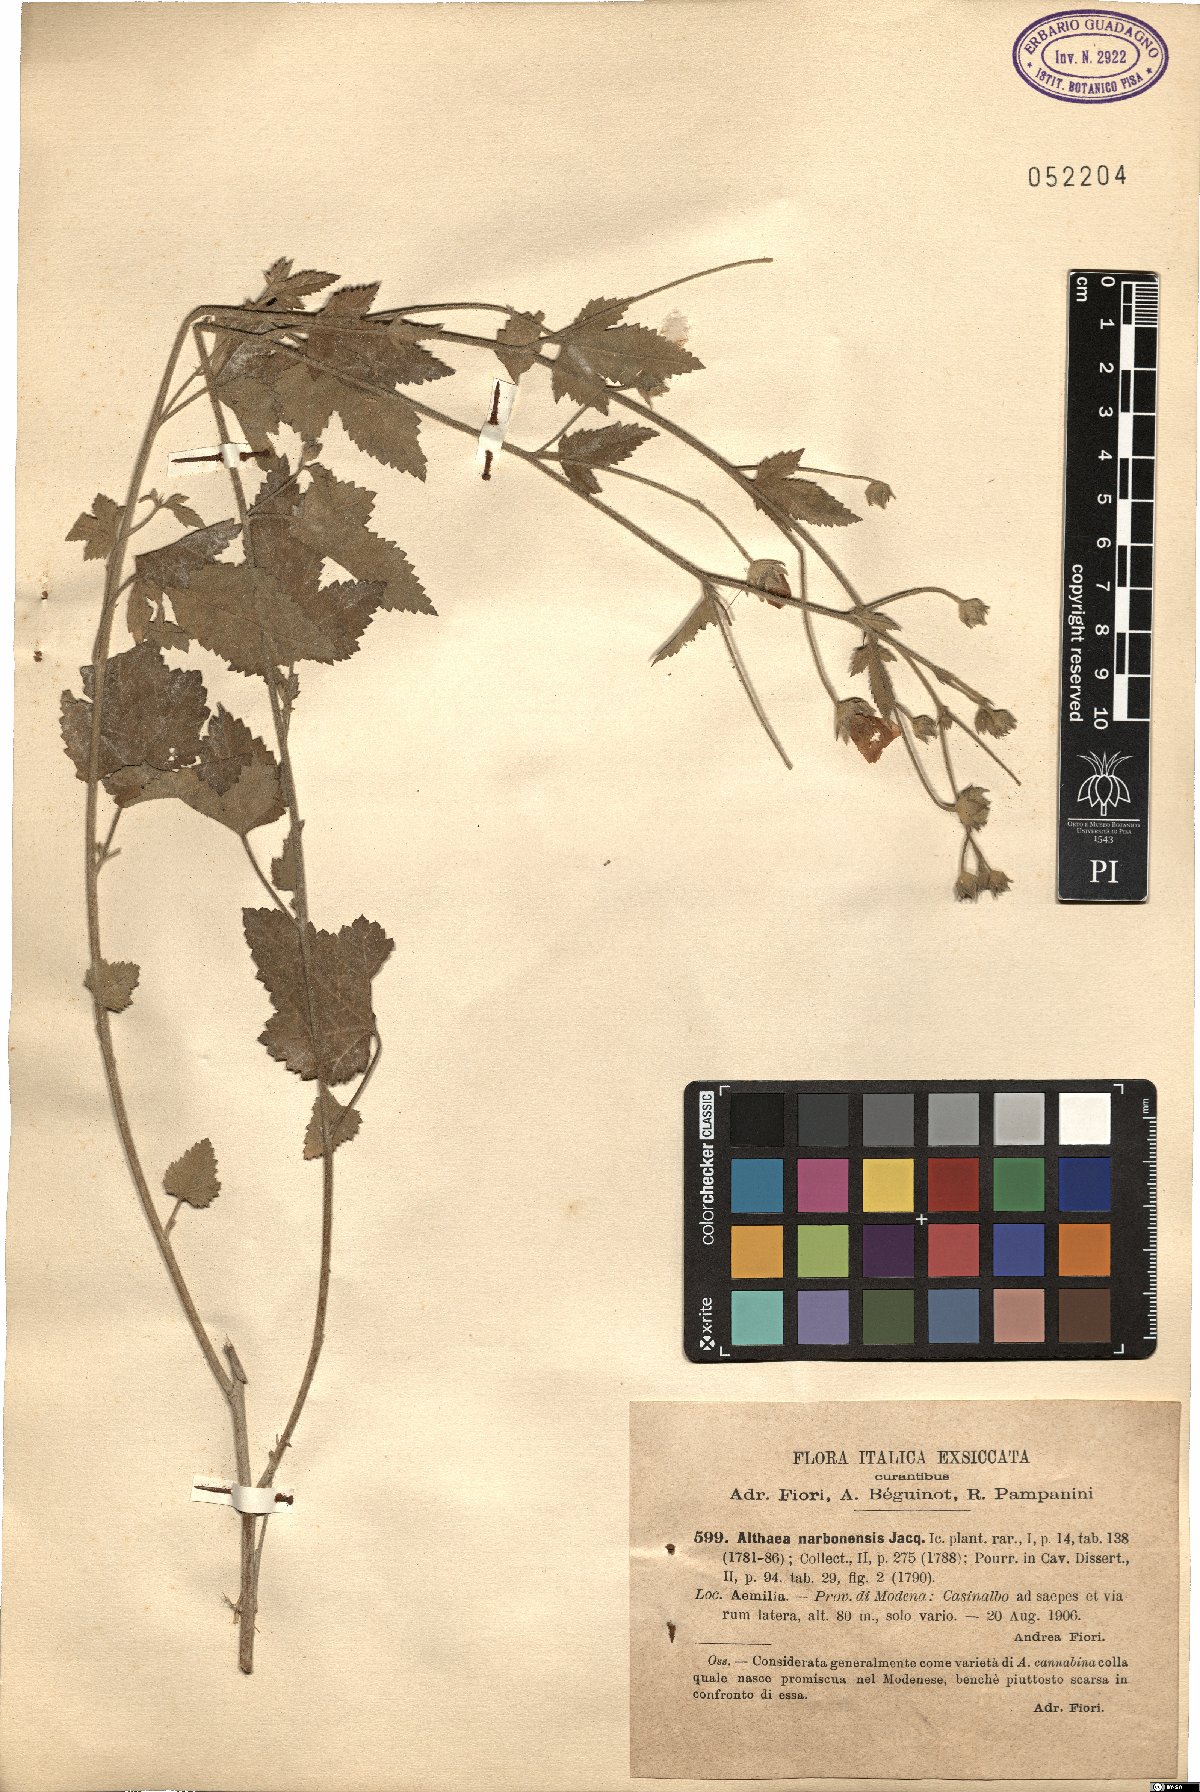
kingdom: Plantae
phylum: Tracheophyta
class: Magnoliopsida
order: Malvales
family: Malvaceae
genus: Althaea
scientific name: Althaea cannabina
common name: Palm-leaf marshmallow
